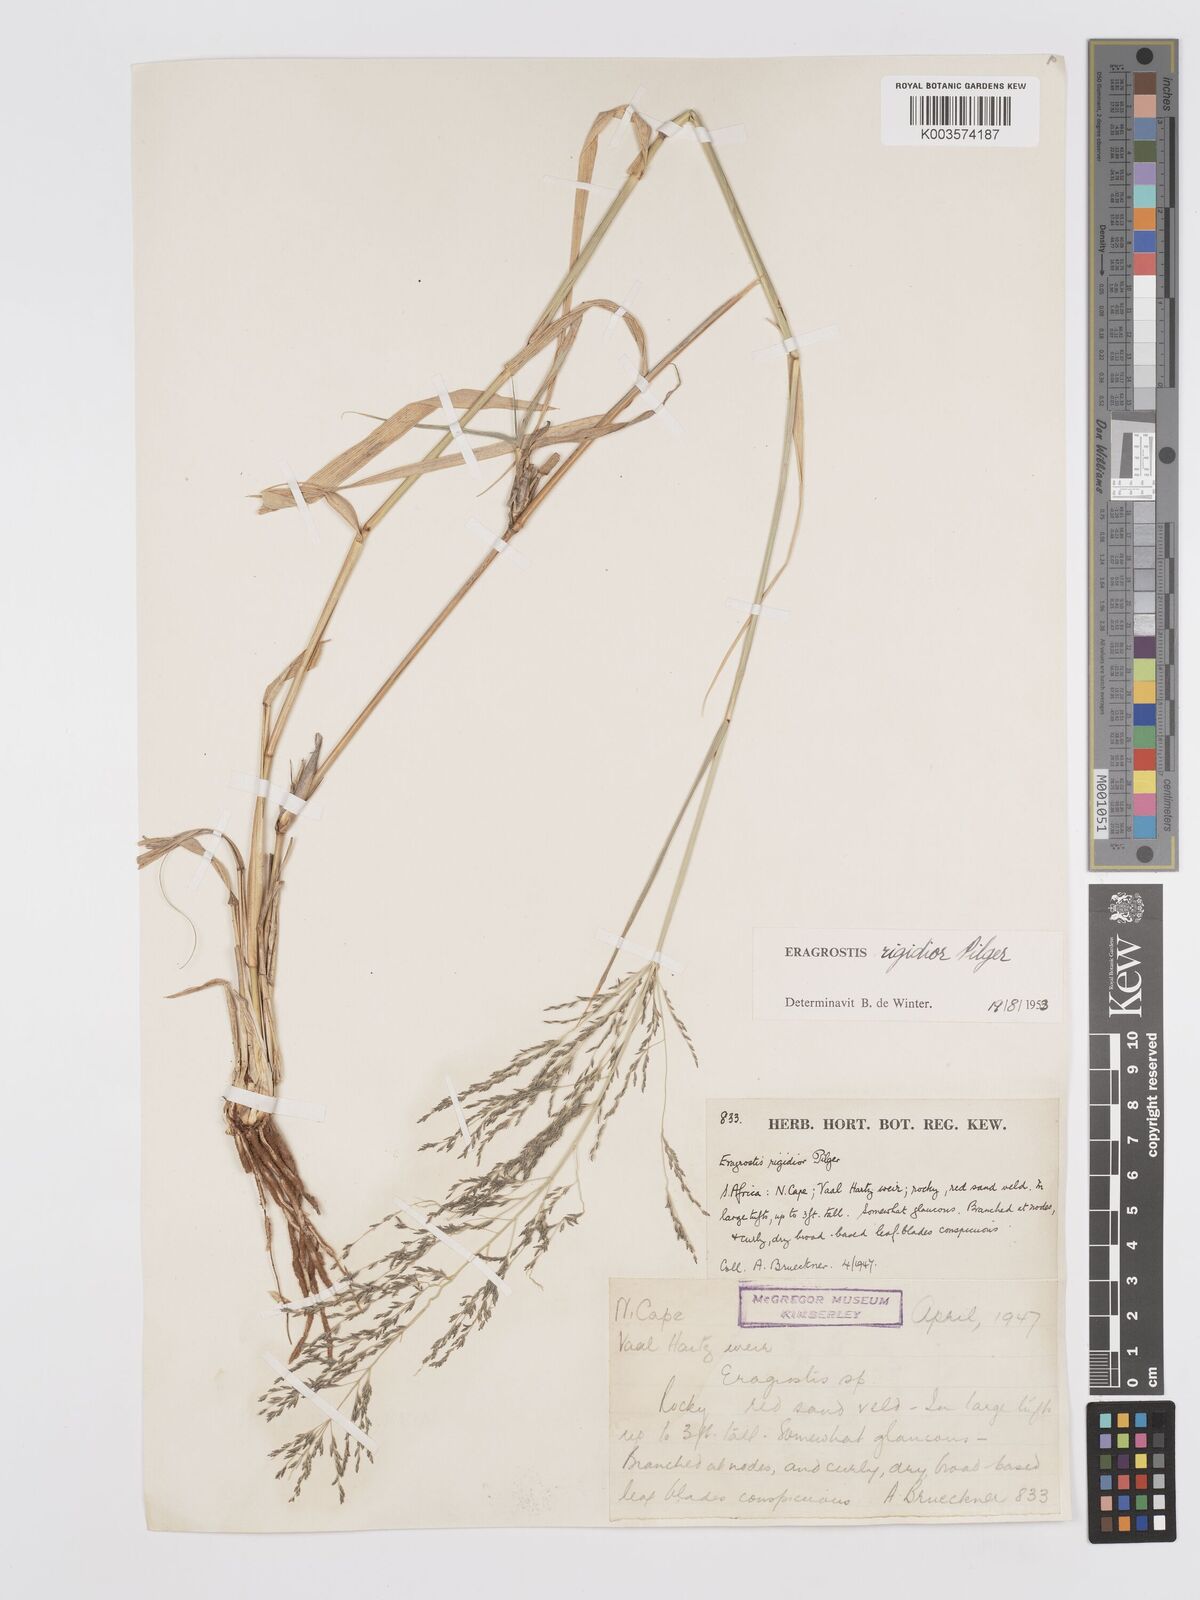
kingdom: Plantae
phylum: Tracheophyta
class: Liliopsida
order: Poales
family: Poaceae
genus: Eragrostis
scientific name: Eragrostis cylindriflora
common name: Cylinderflower lovegrass
